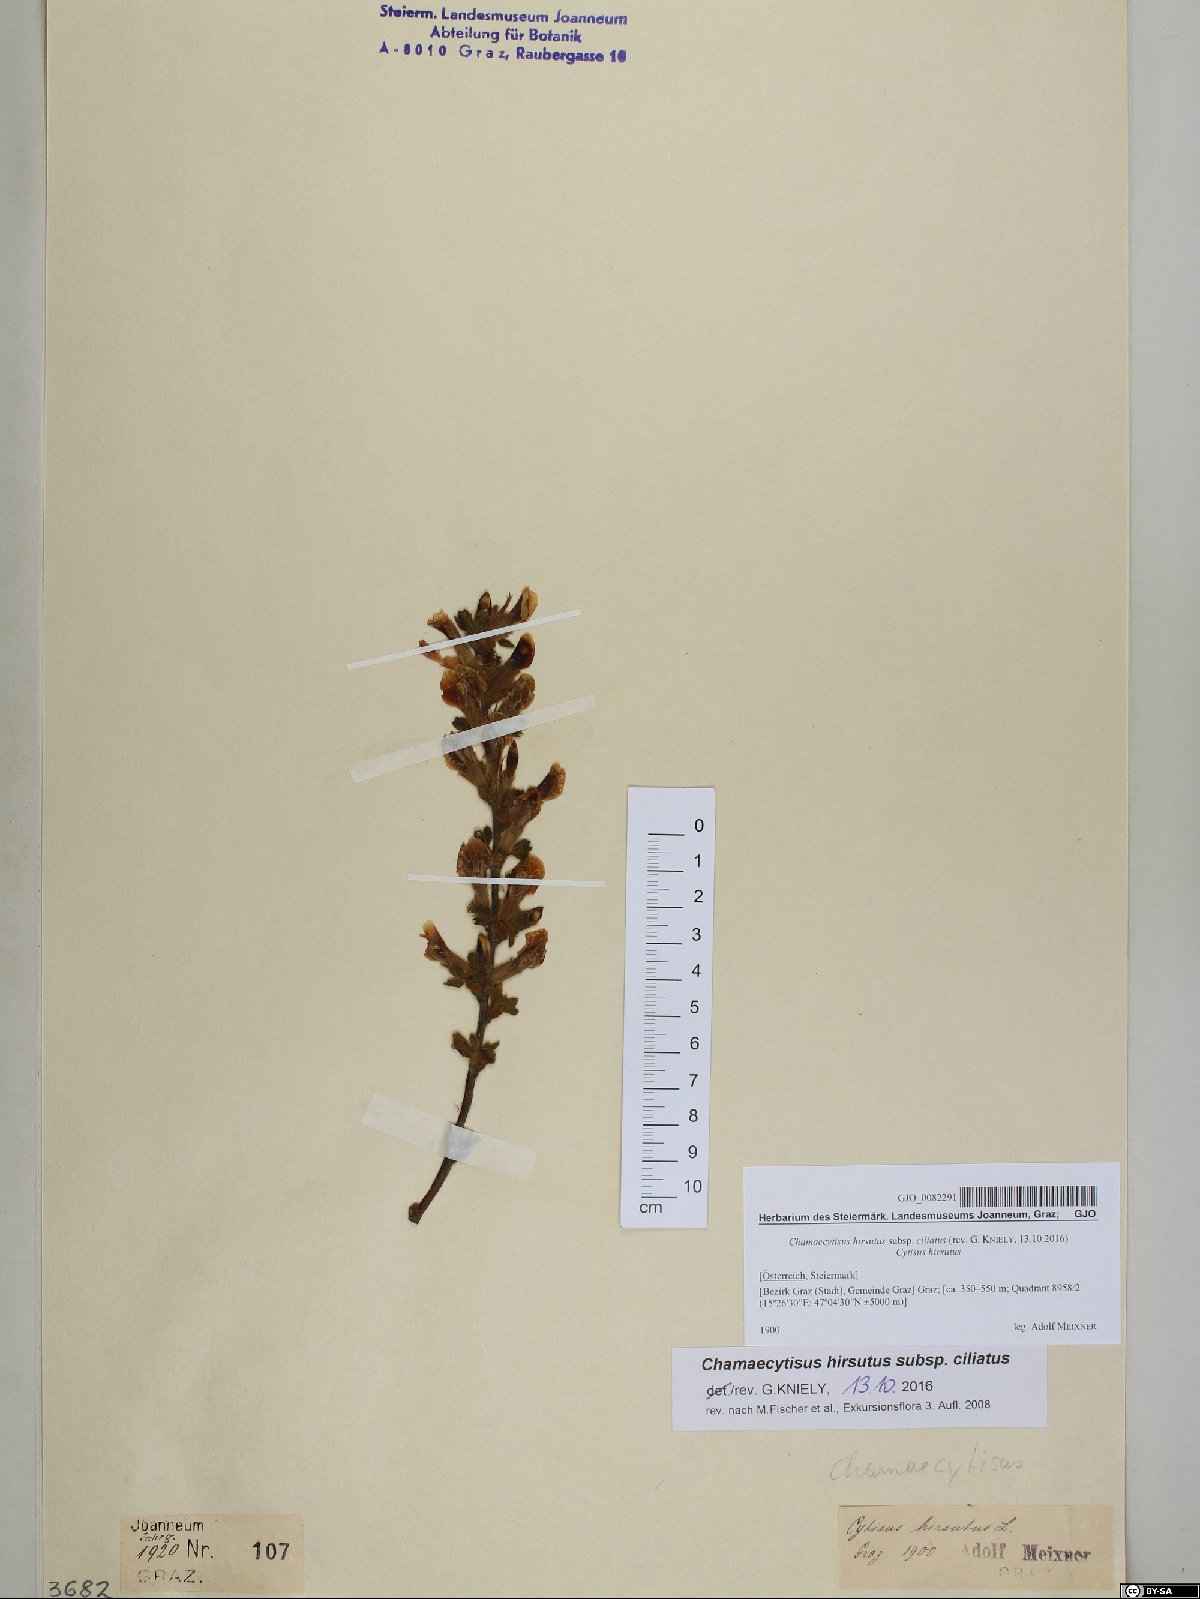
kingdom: Plantae
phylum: Tracheophyta
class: Magnoliopsida
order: Fabales
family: Fabaceae
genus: Chamaecytisus
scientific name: Chamaecytisus hirsutus
